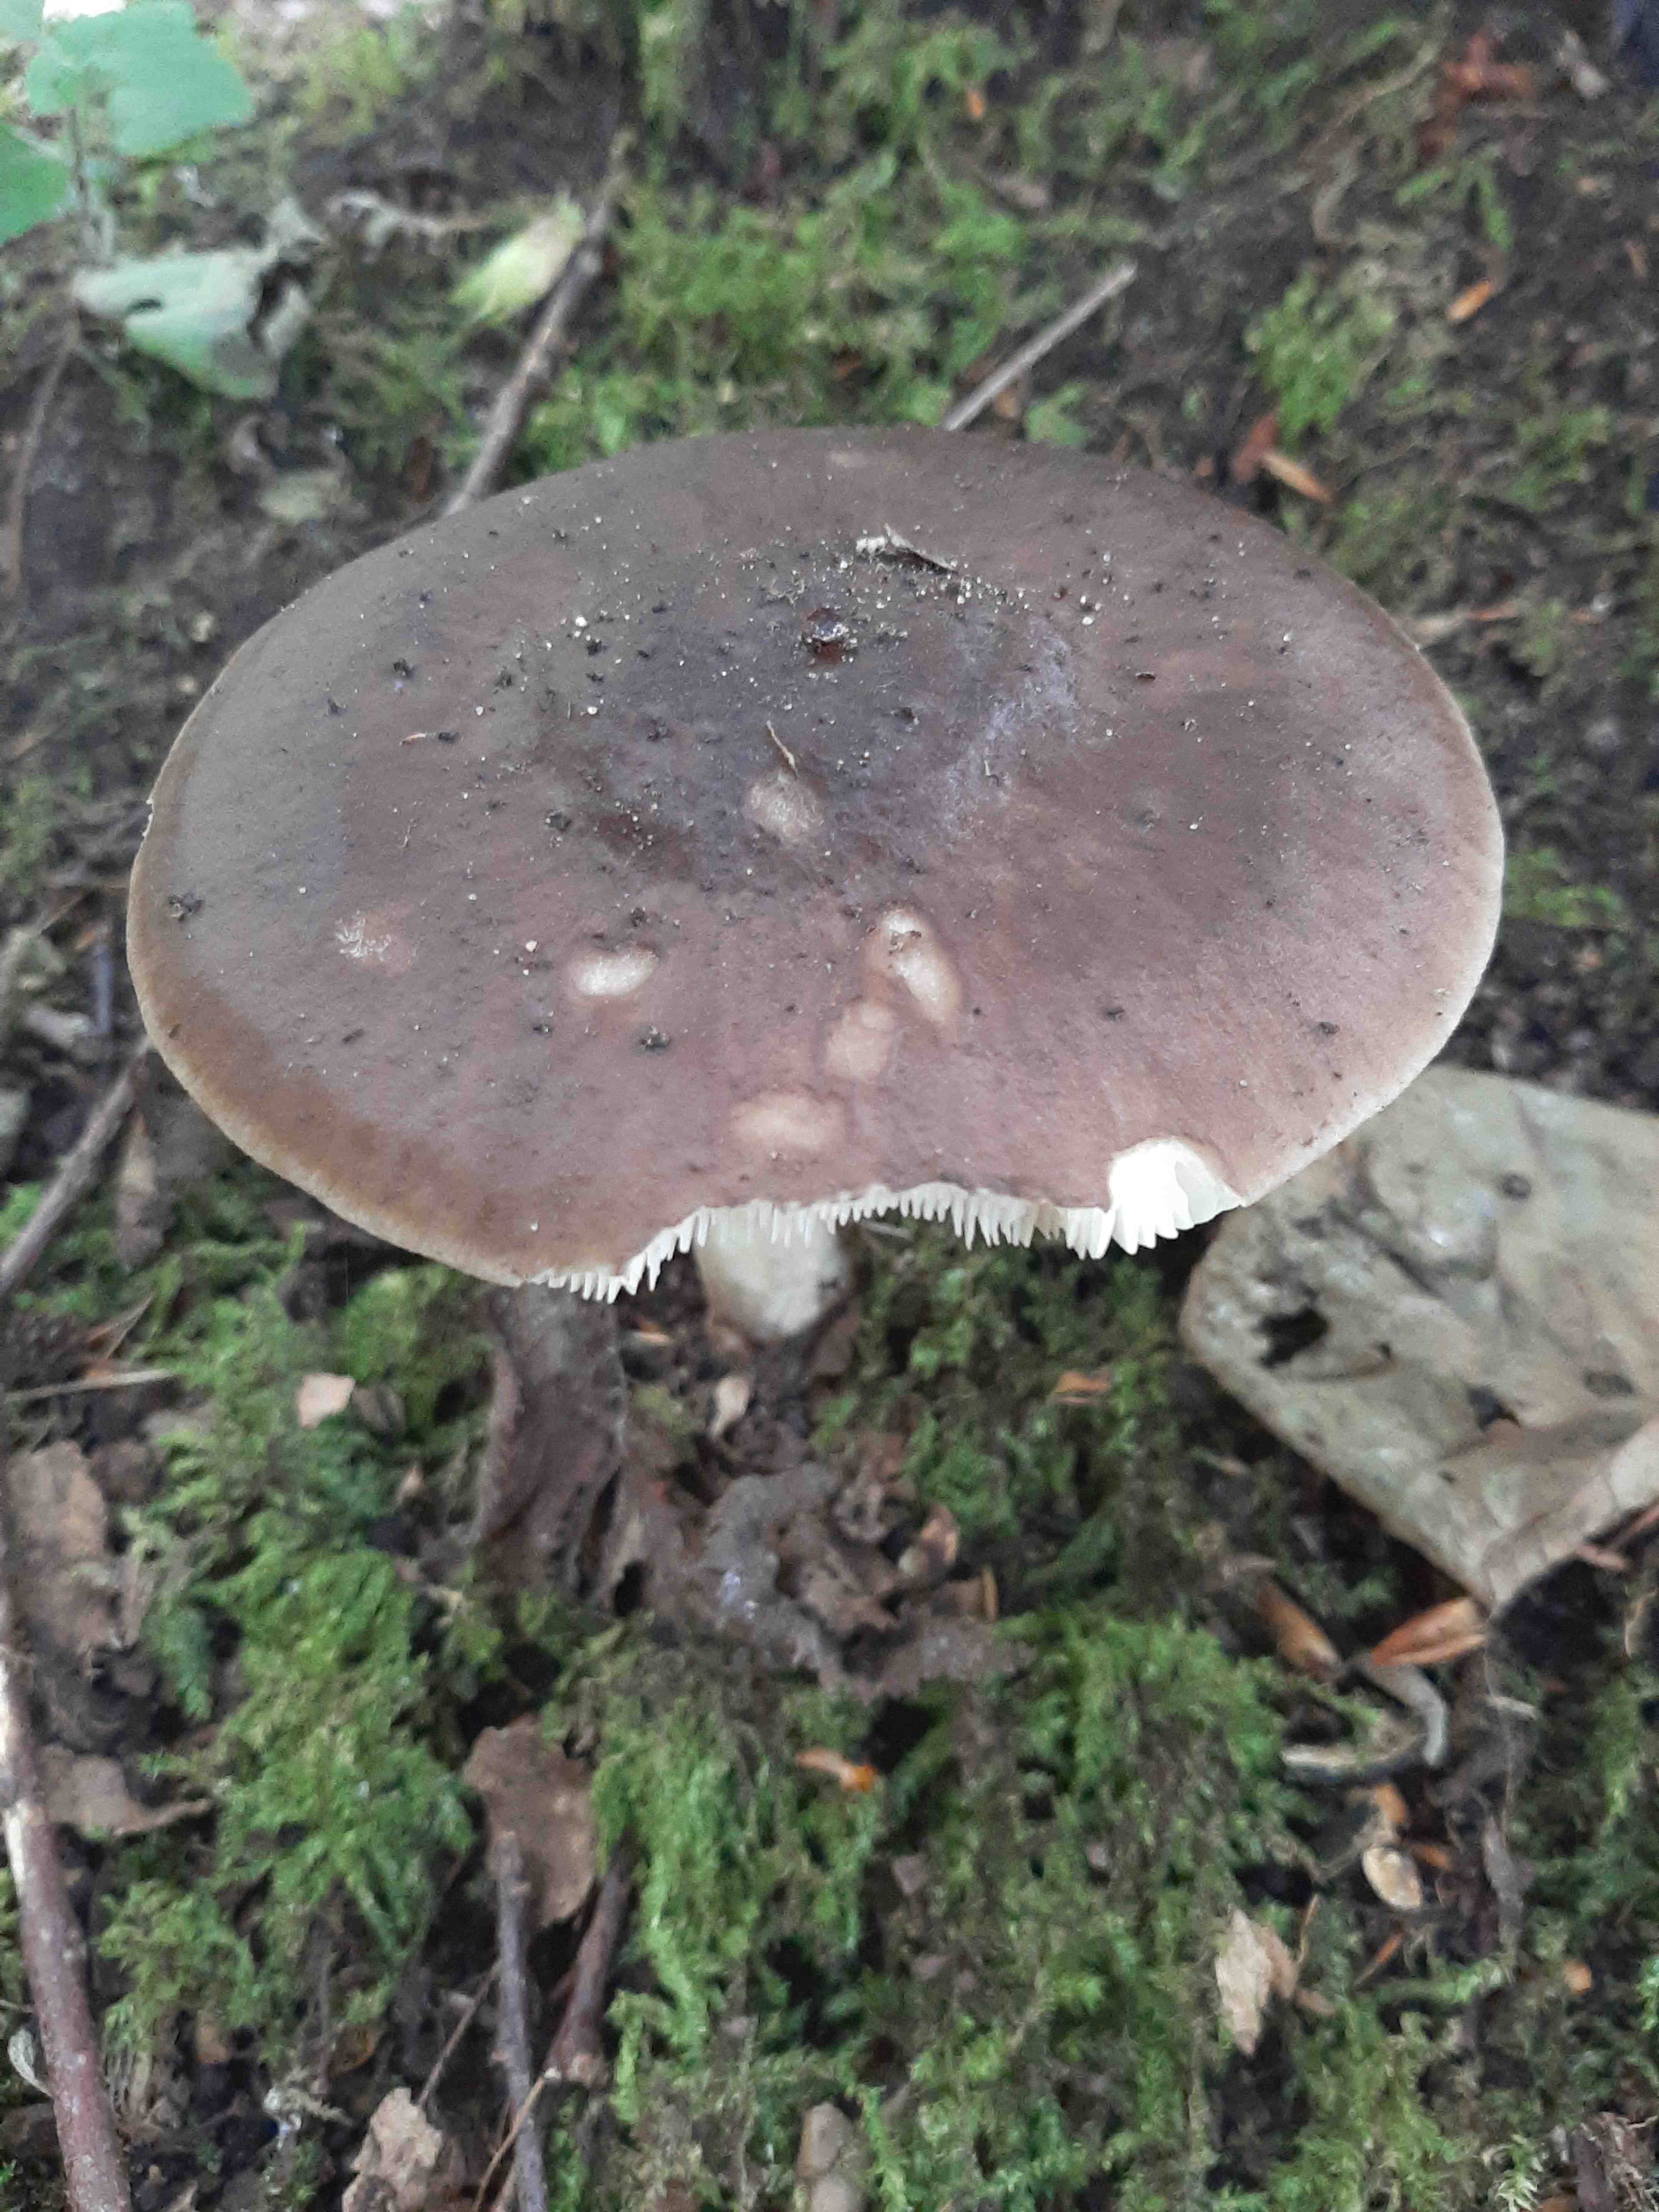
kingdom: Fungi
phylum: Basidiomycota
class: Agaricomycetes
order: Agaricales
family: Pluteaceae
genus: Pluteus
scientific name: Pluteus cervinus
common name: sodfarvet skærmhat
